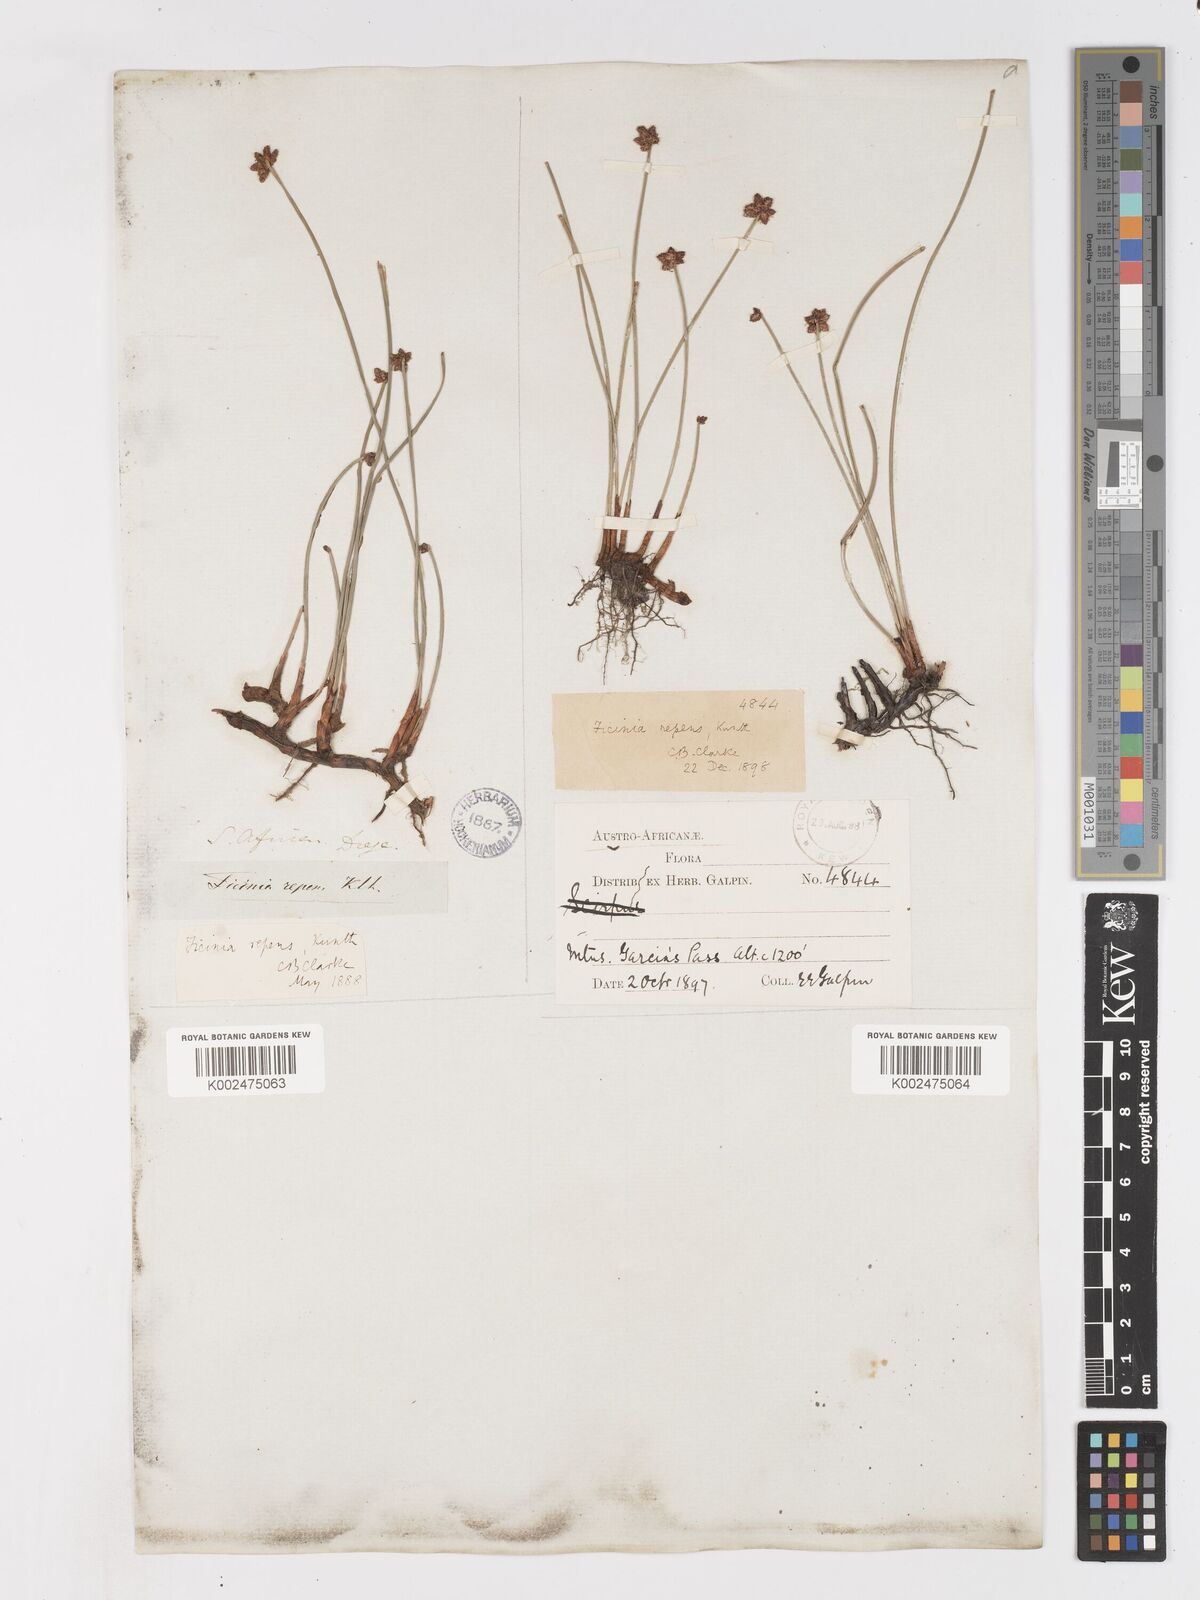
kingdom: Plantae
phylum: Tracheophyta
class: Liliopsida
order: Poales
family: Cyperaceae
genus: Ficinia
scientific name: Ficinia repens
